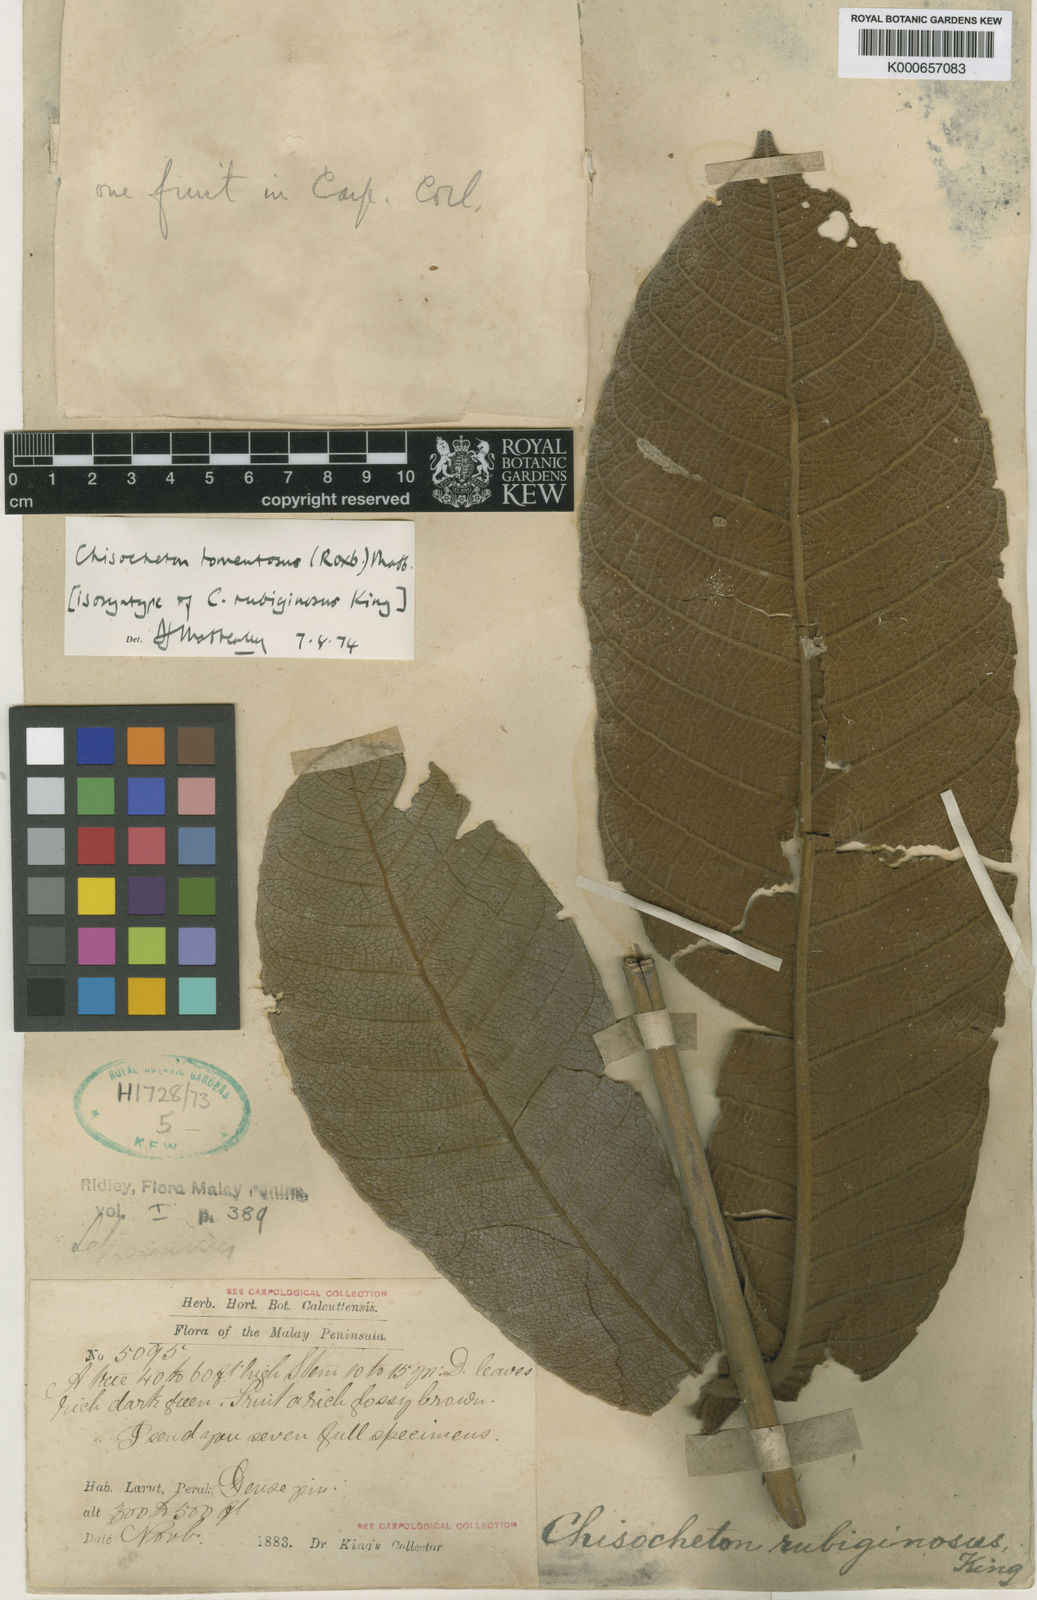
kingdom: Plantae
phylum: Tracheophyta
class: Magnoliopsida
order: Sapindales
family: Meliaceae
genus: Chisocheton
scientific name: Chisocheton tomentosus
